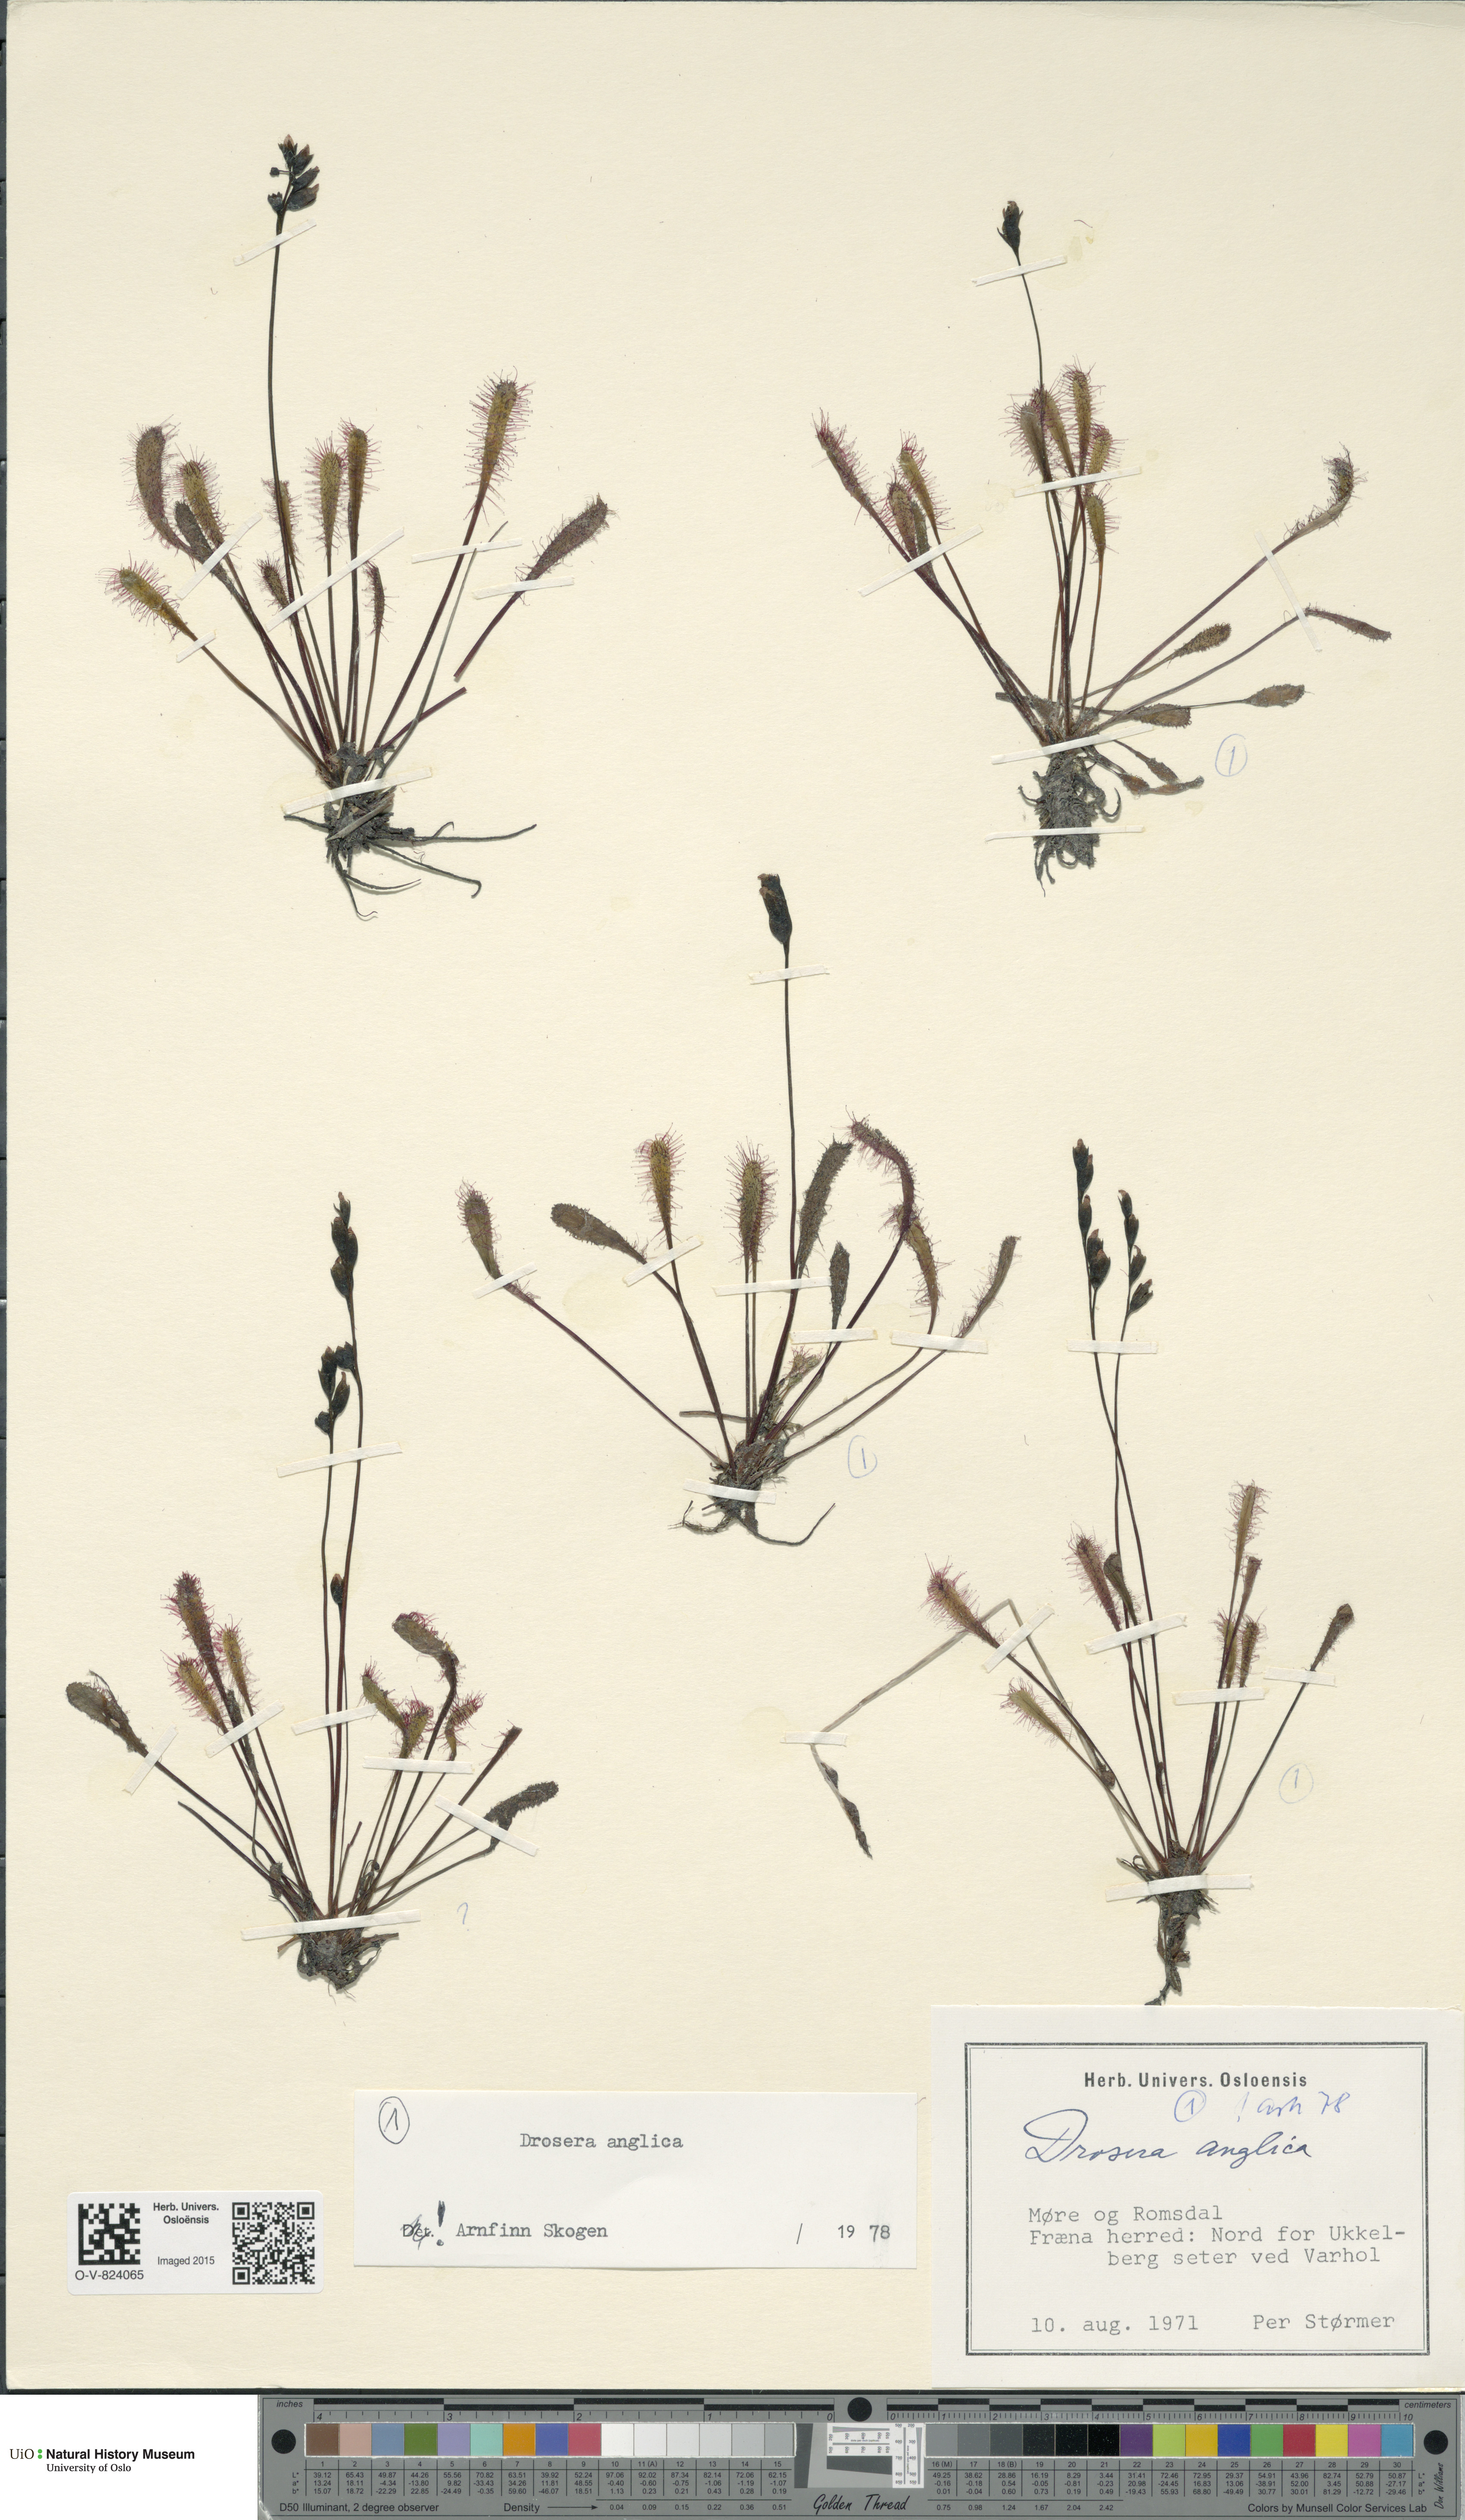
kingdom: Plantae
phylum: Tracheophyta
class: Magnoliopsida
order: Caryophyllales
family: Droseraceae
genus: Drosera
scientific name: Drosera anglica
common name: Great sundew
